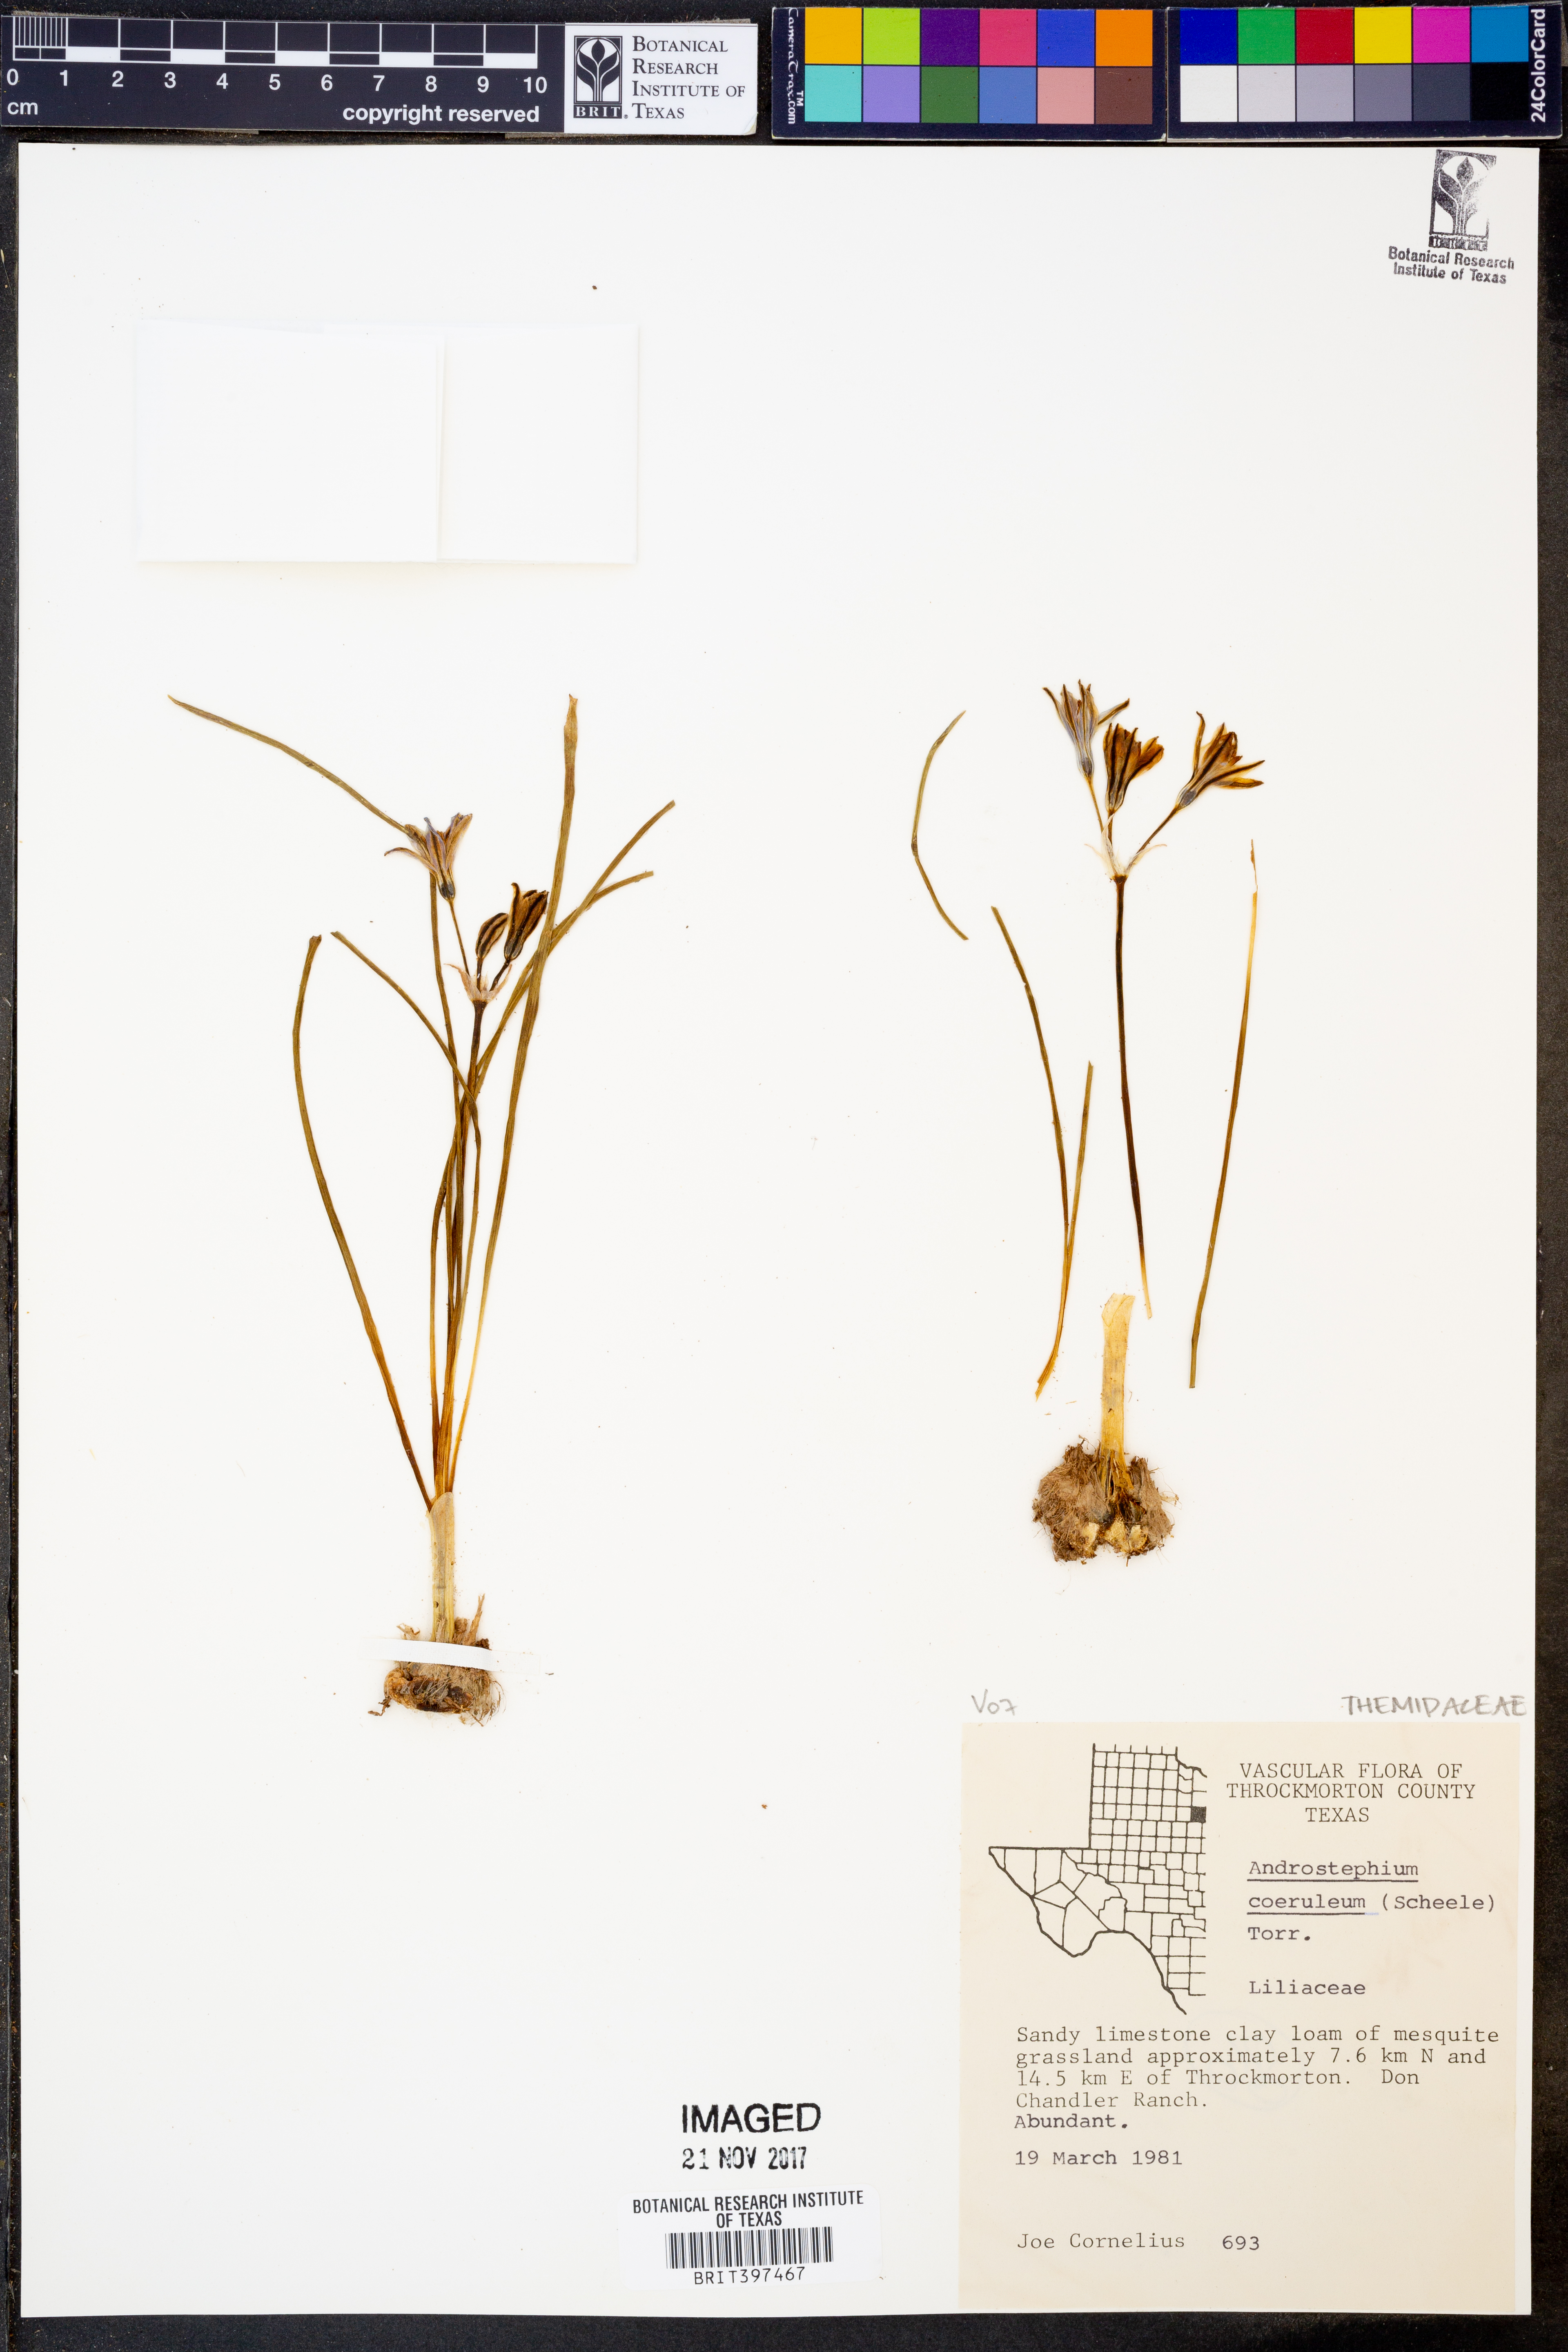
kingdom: Plantae
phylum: Tracheophyta
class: Liliopsida
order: Asparagales
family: Asparagaceae
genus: Androstephium
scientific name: Androstephium caeruleum
